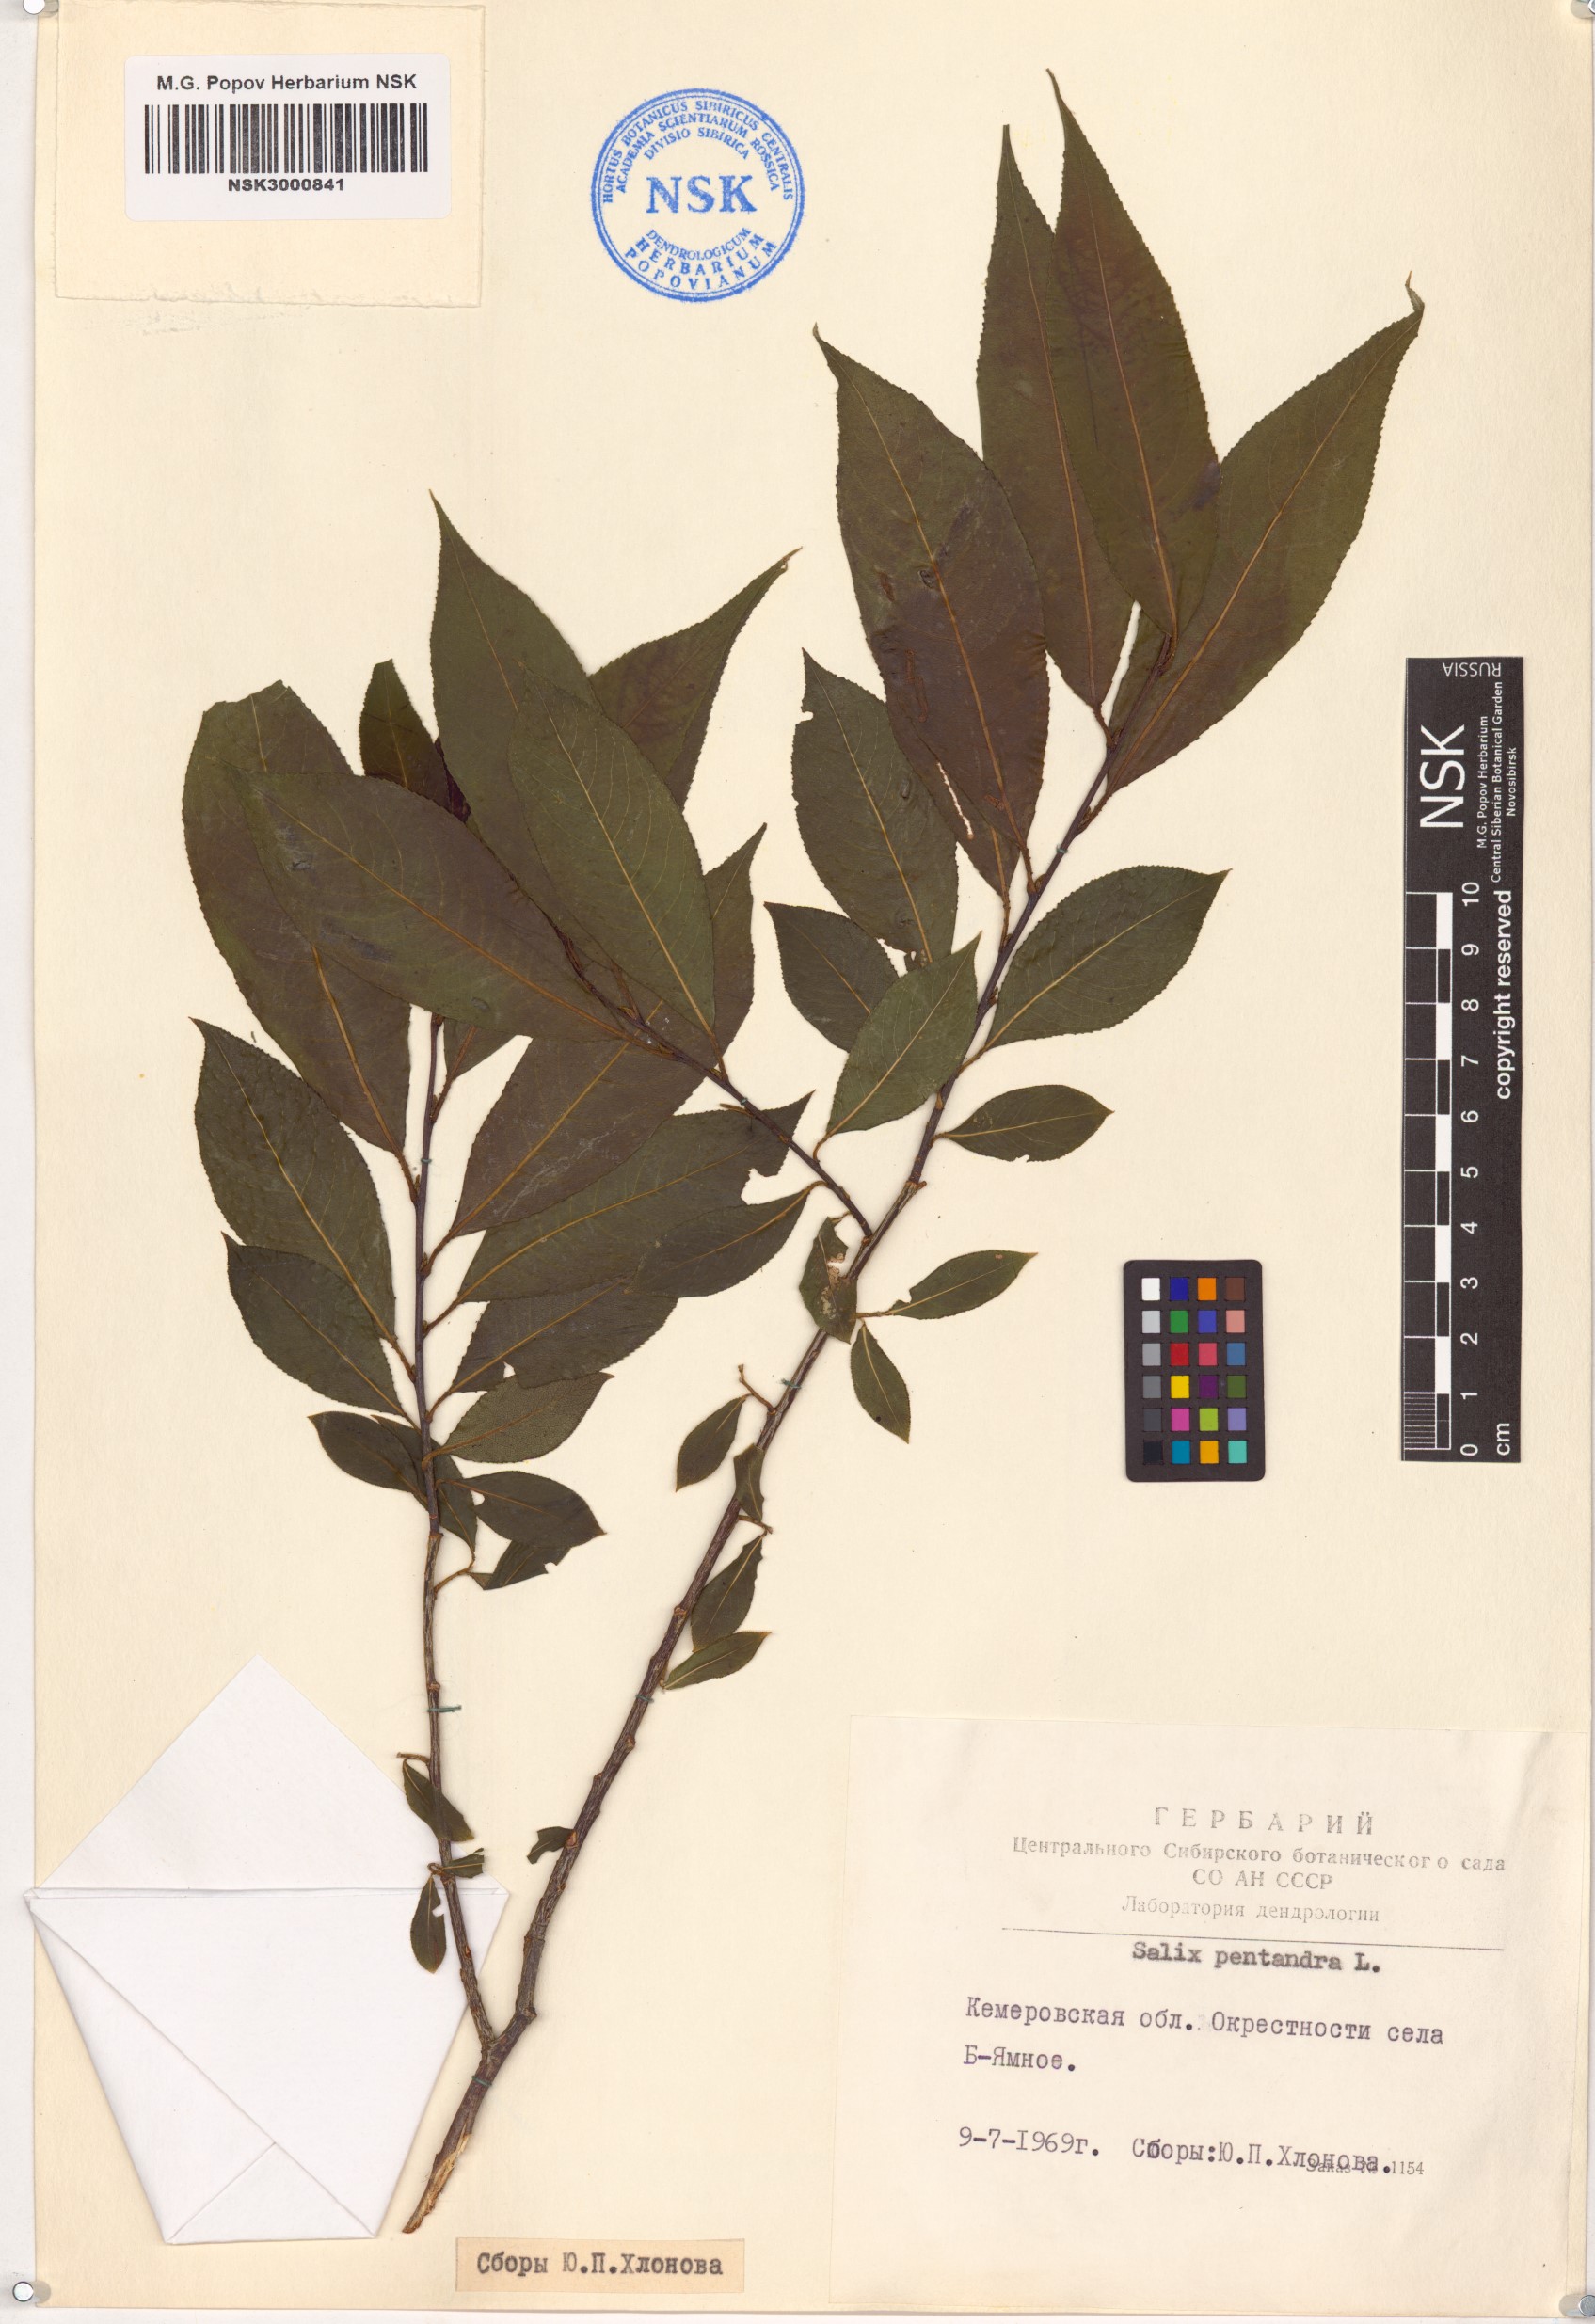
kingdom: Plantae
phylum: Tracheophyta
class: Magnoliopsida
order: Malpighiales
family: Salicaceae
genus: Salix
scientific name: Salix pentandra
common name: Bay willow
